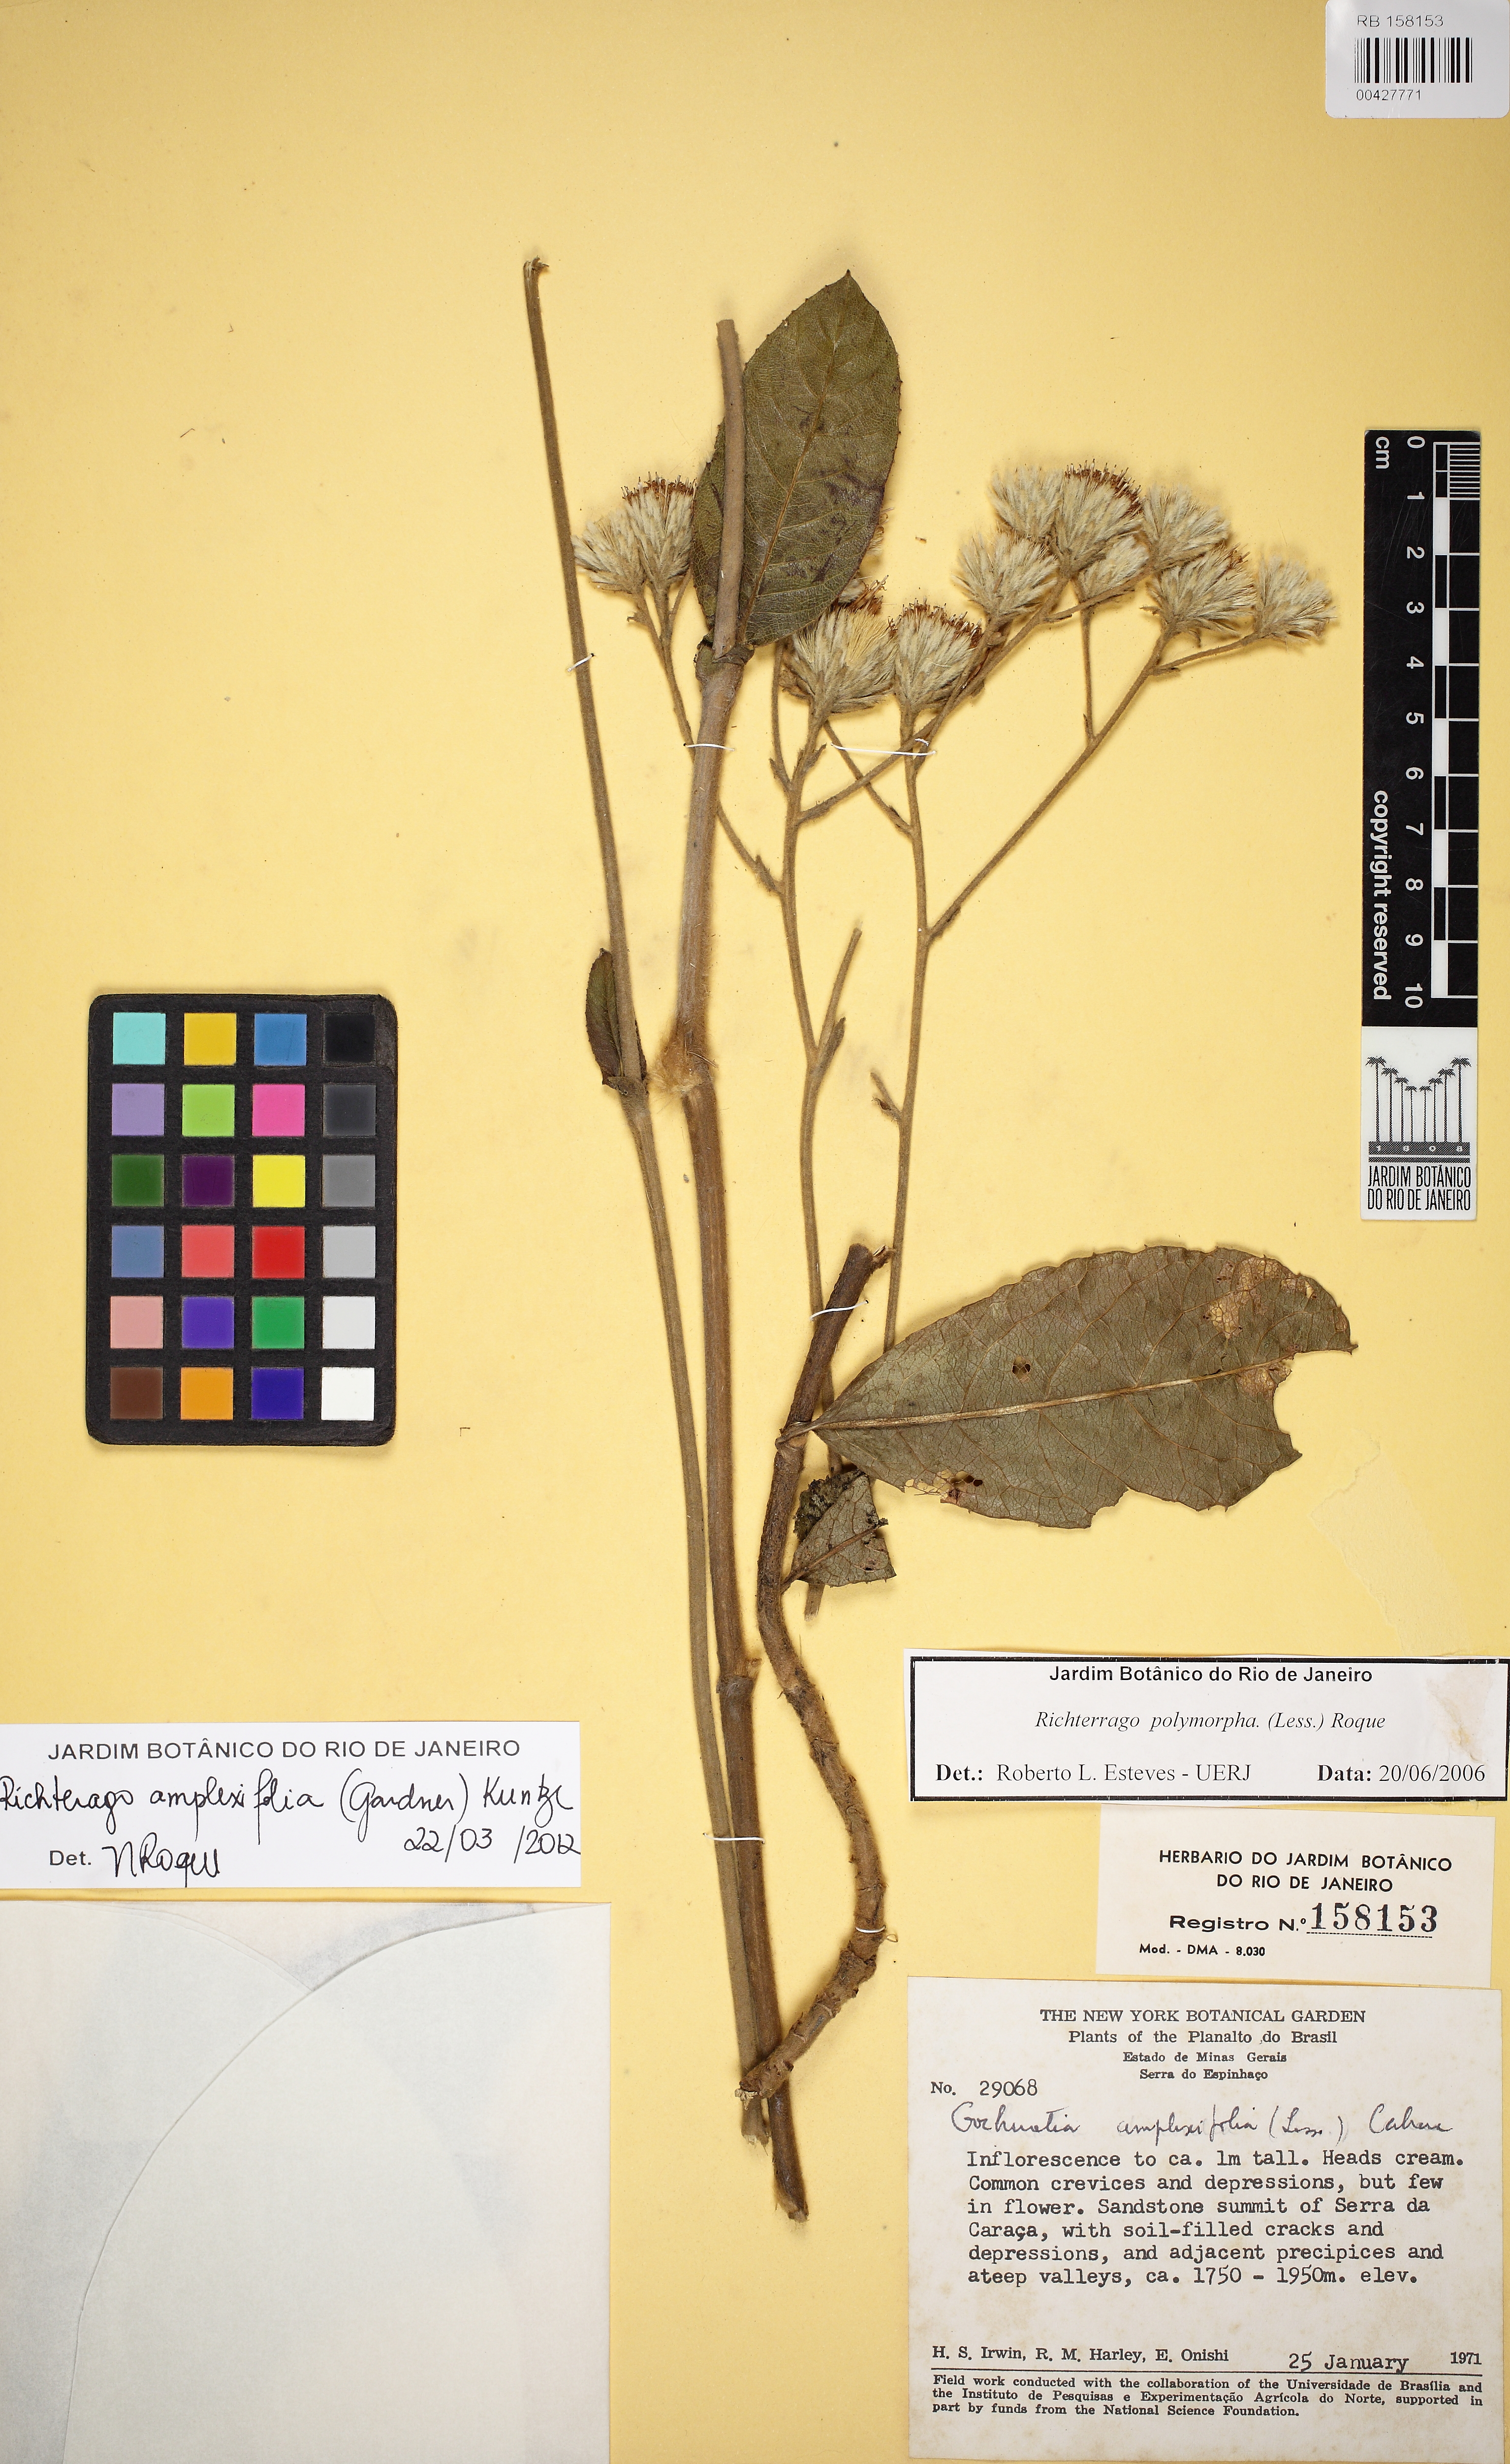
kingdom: Plantae
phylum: Tracheophyta
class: Magnoliopsida
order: Asterales
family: Asteraceae
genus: Richterago
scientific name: Richterago amplexifolia
